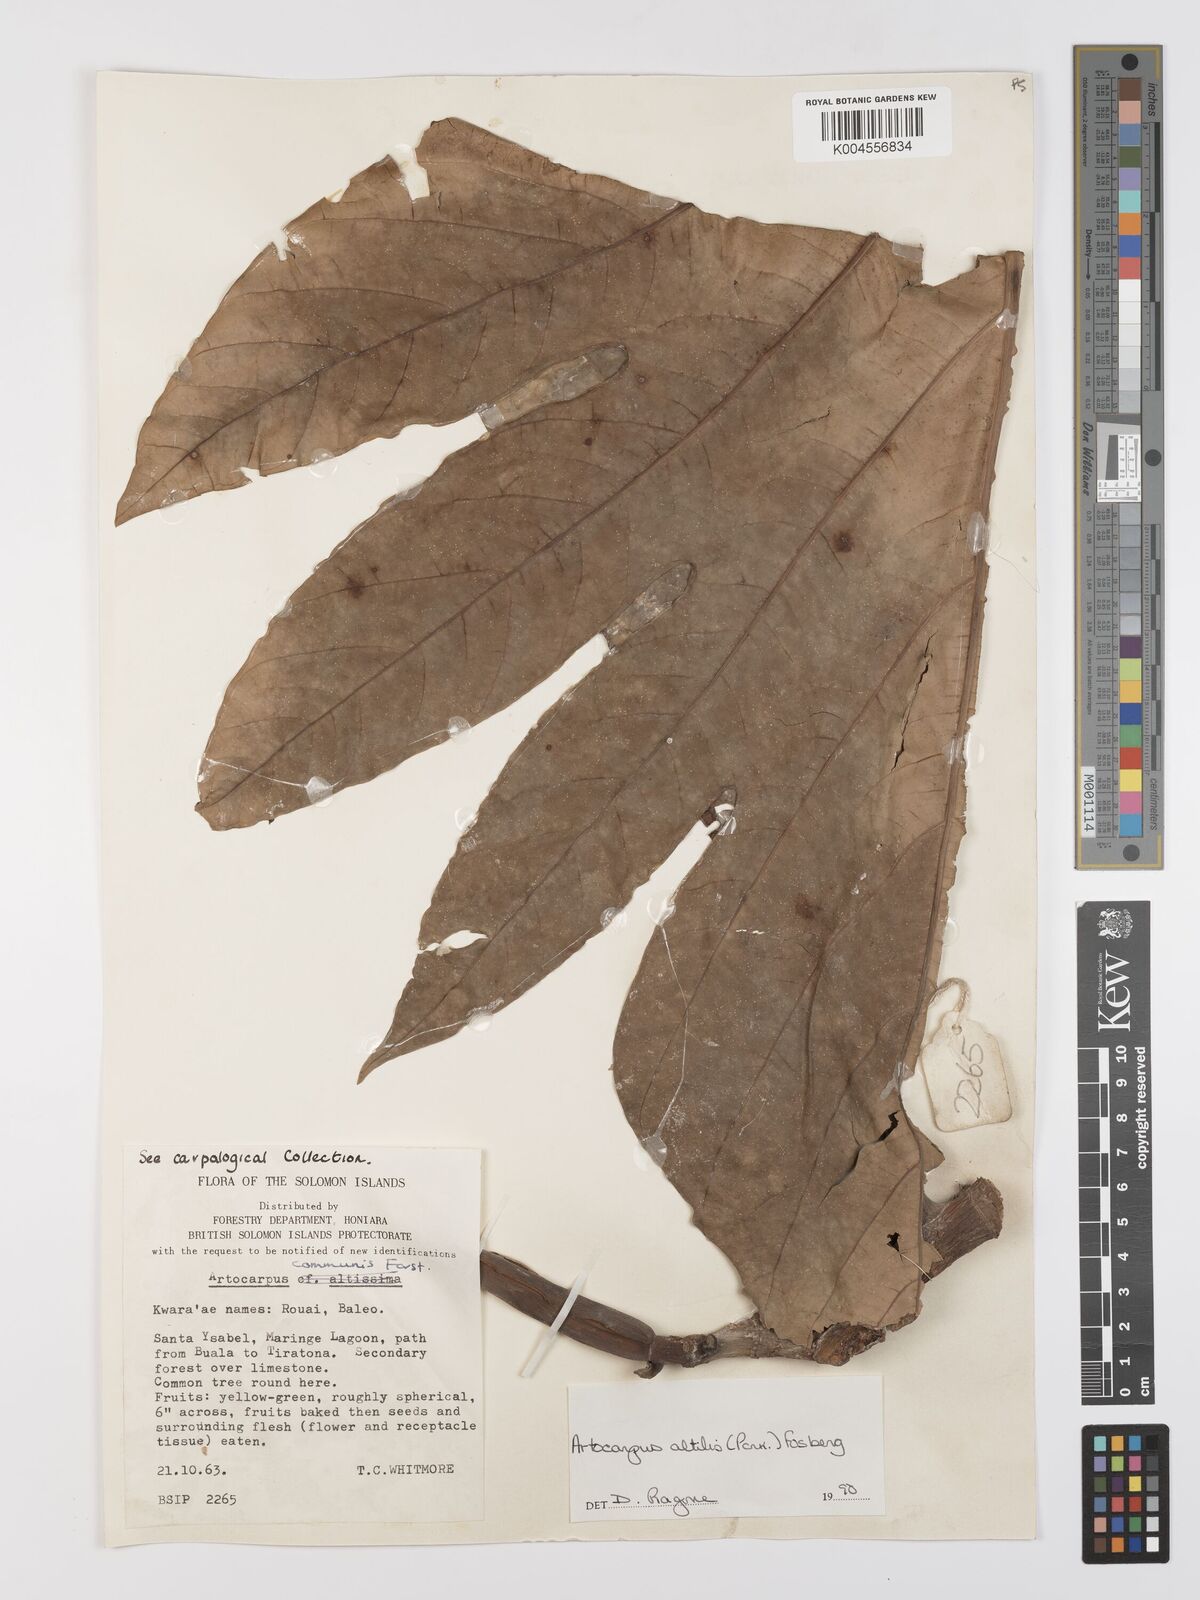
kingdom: Plantae
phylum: Tracheophyta
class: Magnoliopsida
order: Rosales
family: Moraceae
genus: Artocarpus
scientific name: Artocarpus altilis
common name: Breadfruit
